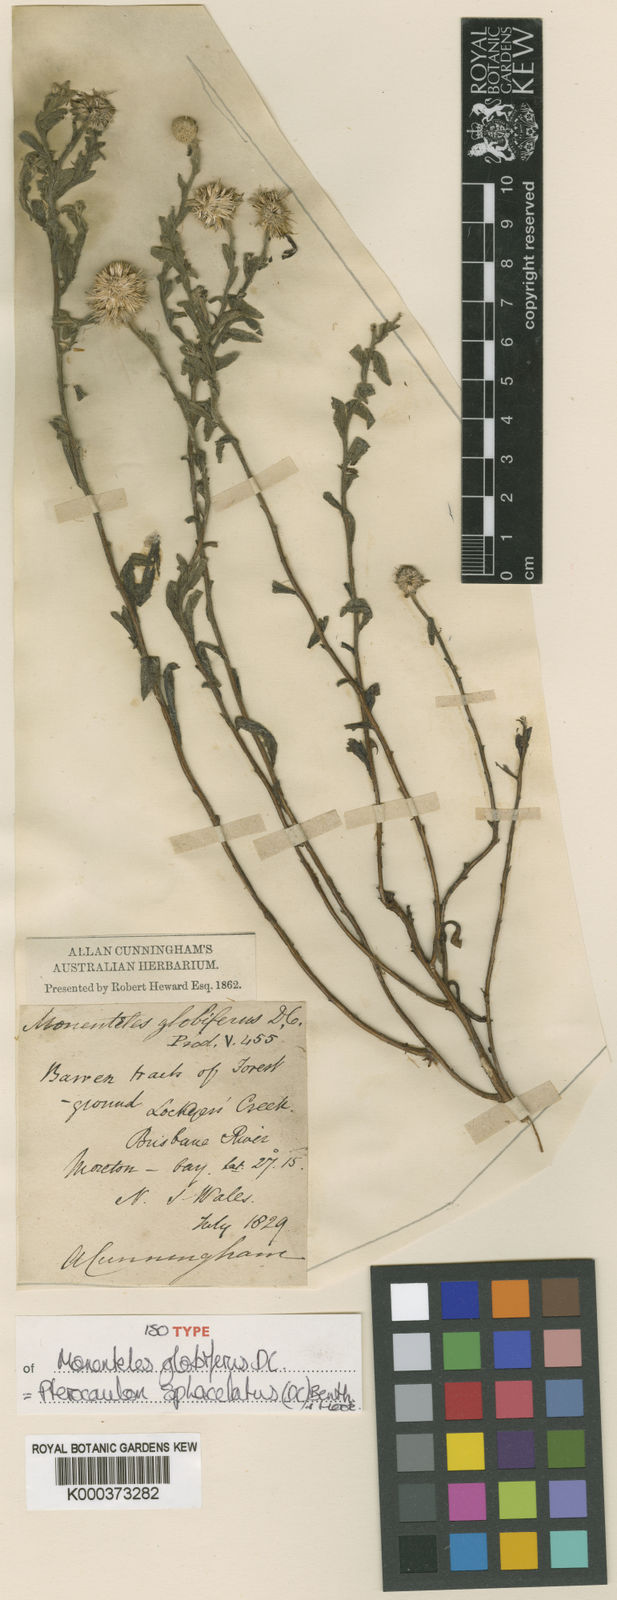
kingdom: Plantae
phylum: Tracheophyta
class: Magnoliopsida
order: Asterales
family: Asteraceae
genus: Pterocaulon
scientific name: Pterocaulon
